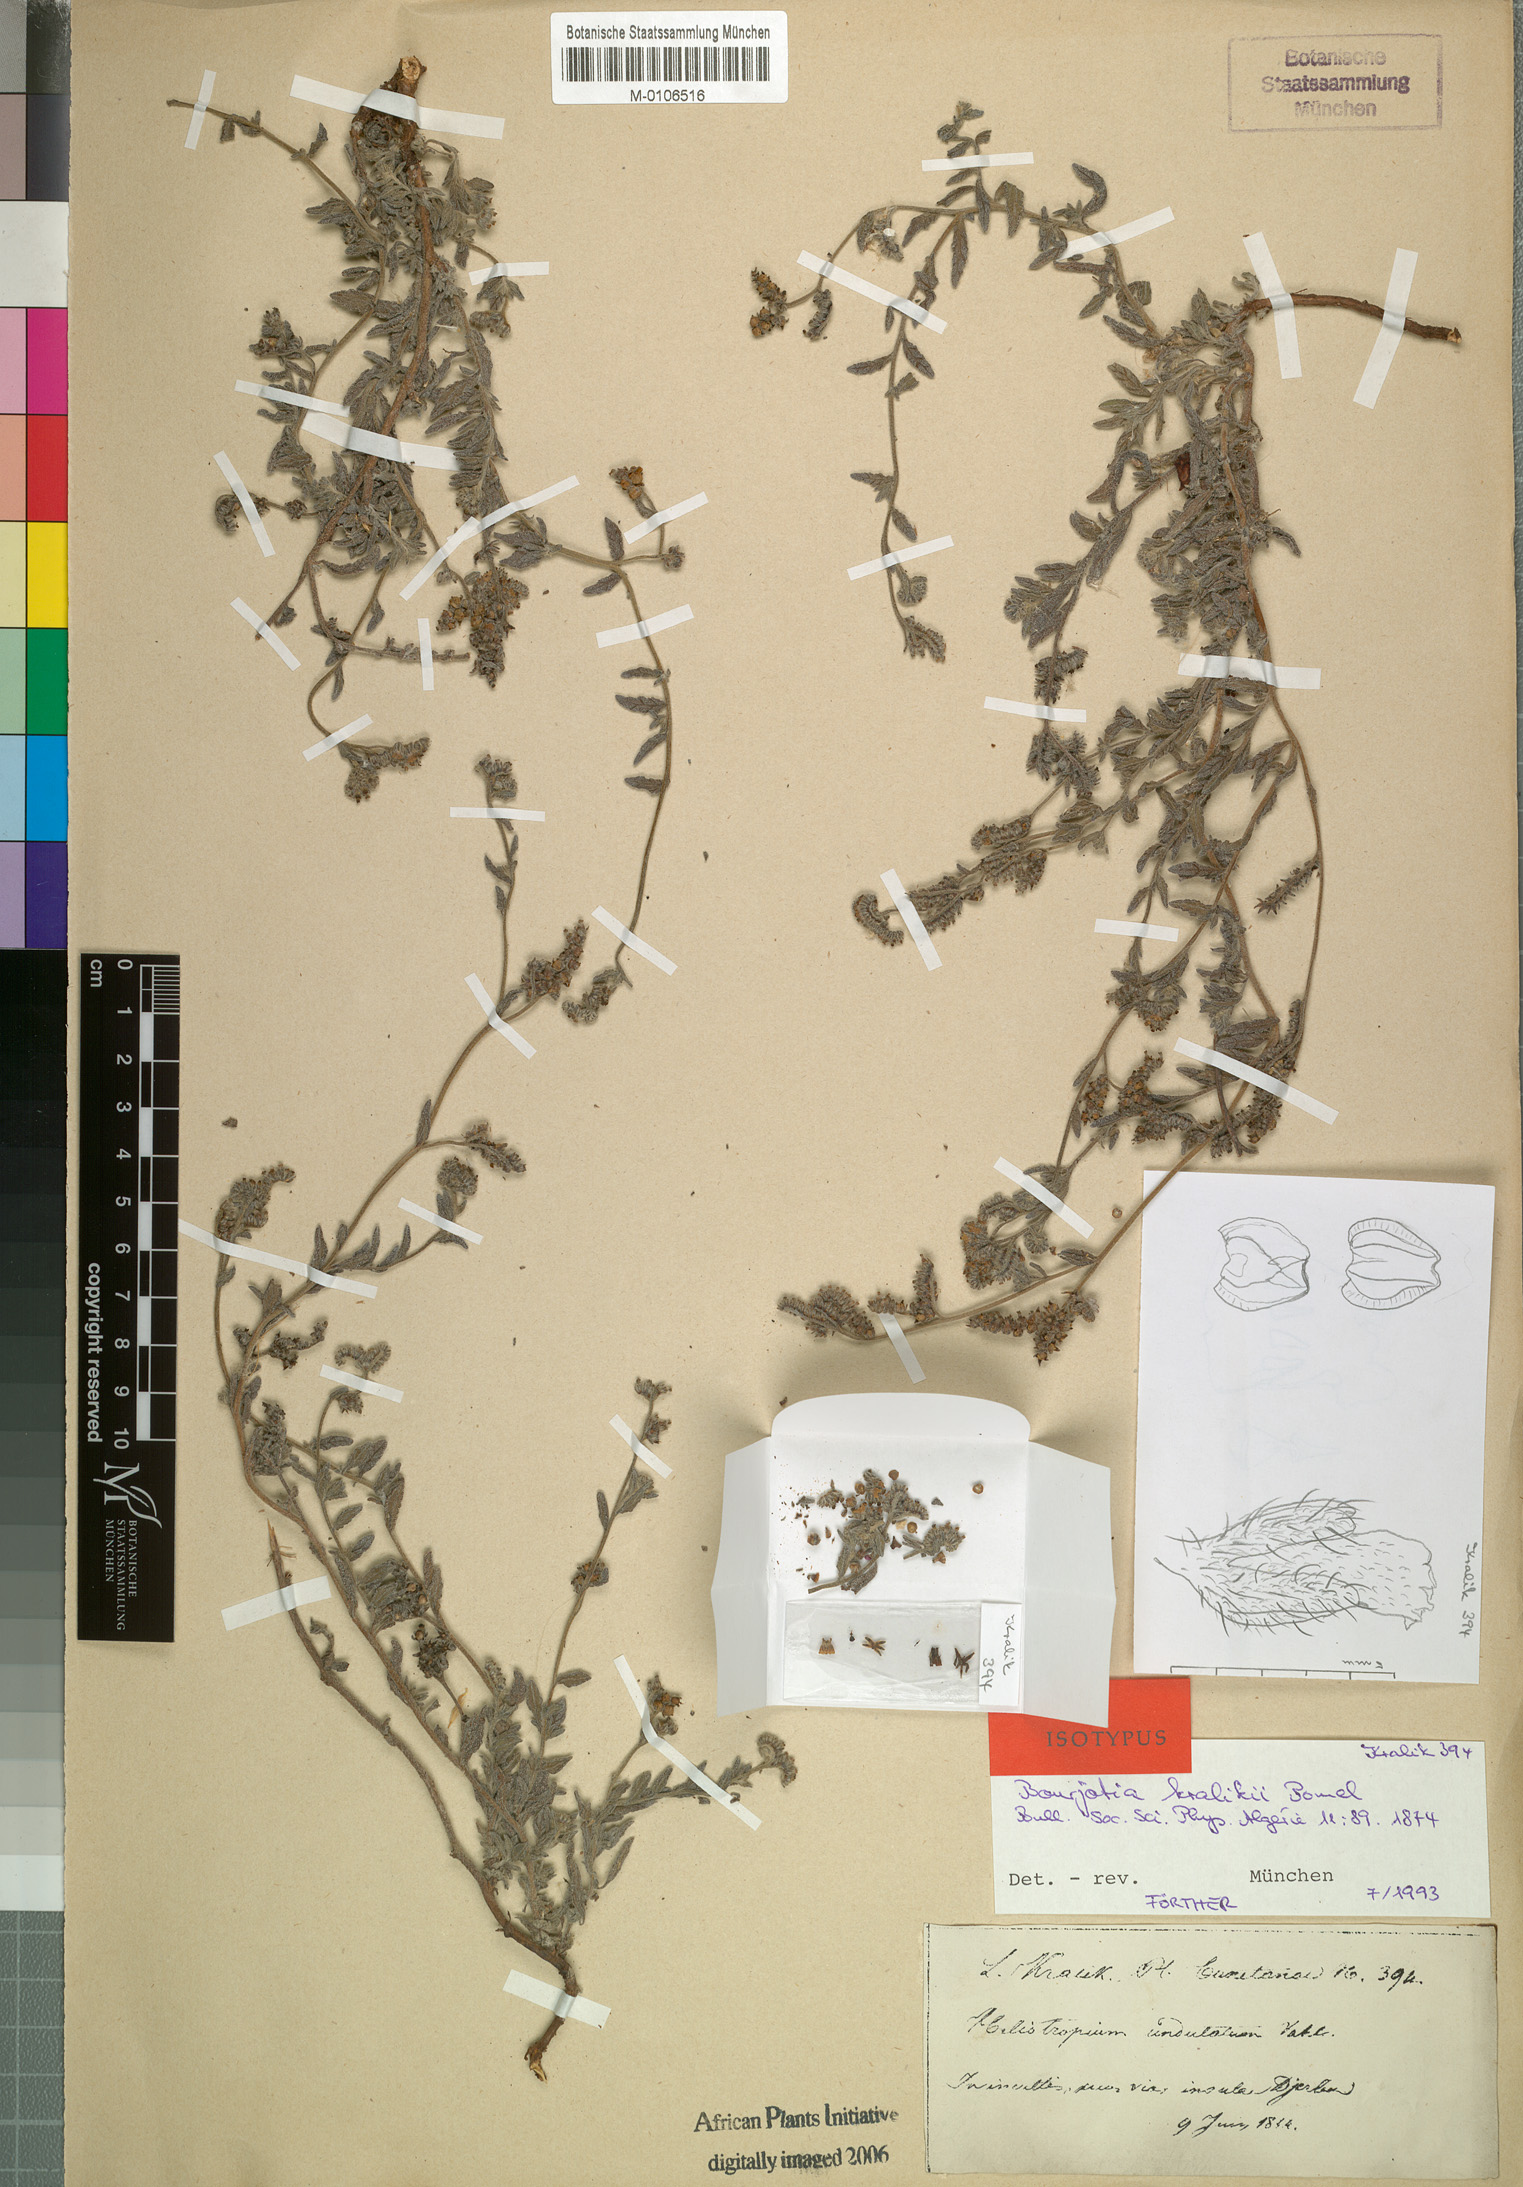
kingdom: Plantae
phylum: Tracheophyta
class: Magnoliopsida
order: Boraginales
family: Heliotropiaceae
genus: Heliotropium
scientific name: Heliotropium bacciferum
